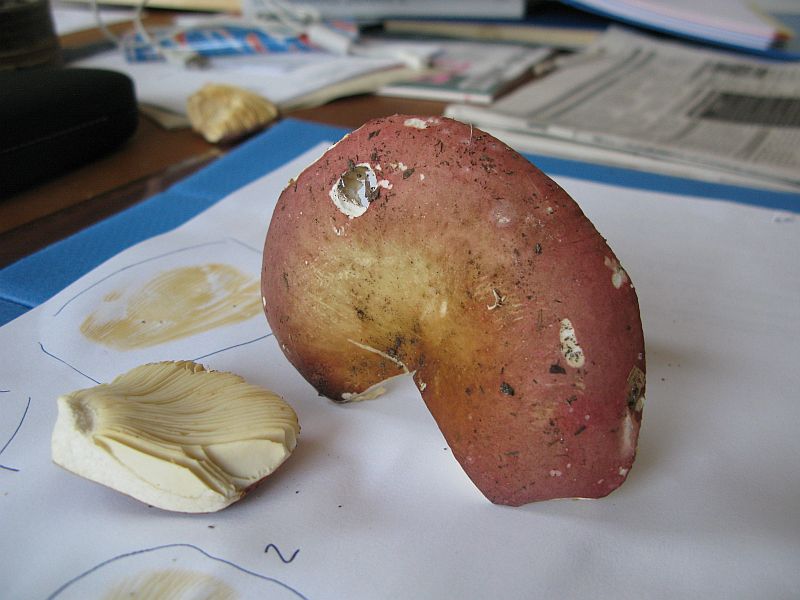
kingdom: Fungi
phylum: Basidiomycota
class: Agaricomycetes
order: Russulales
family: Russulaceae
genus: Russula
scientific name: Russula curtipes
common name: kortstokket skørhat
